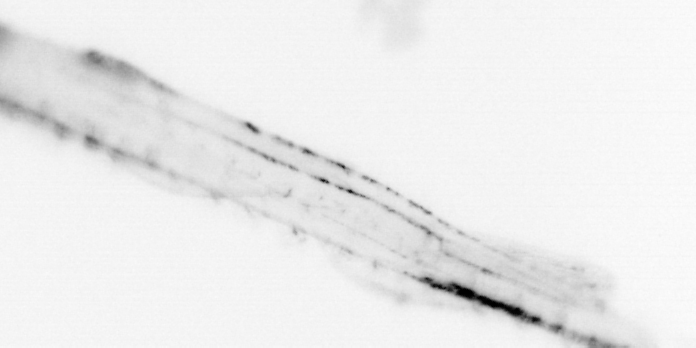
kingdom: Animalia
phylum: Chaetognatha
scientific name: Chaetognatha
